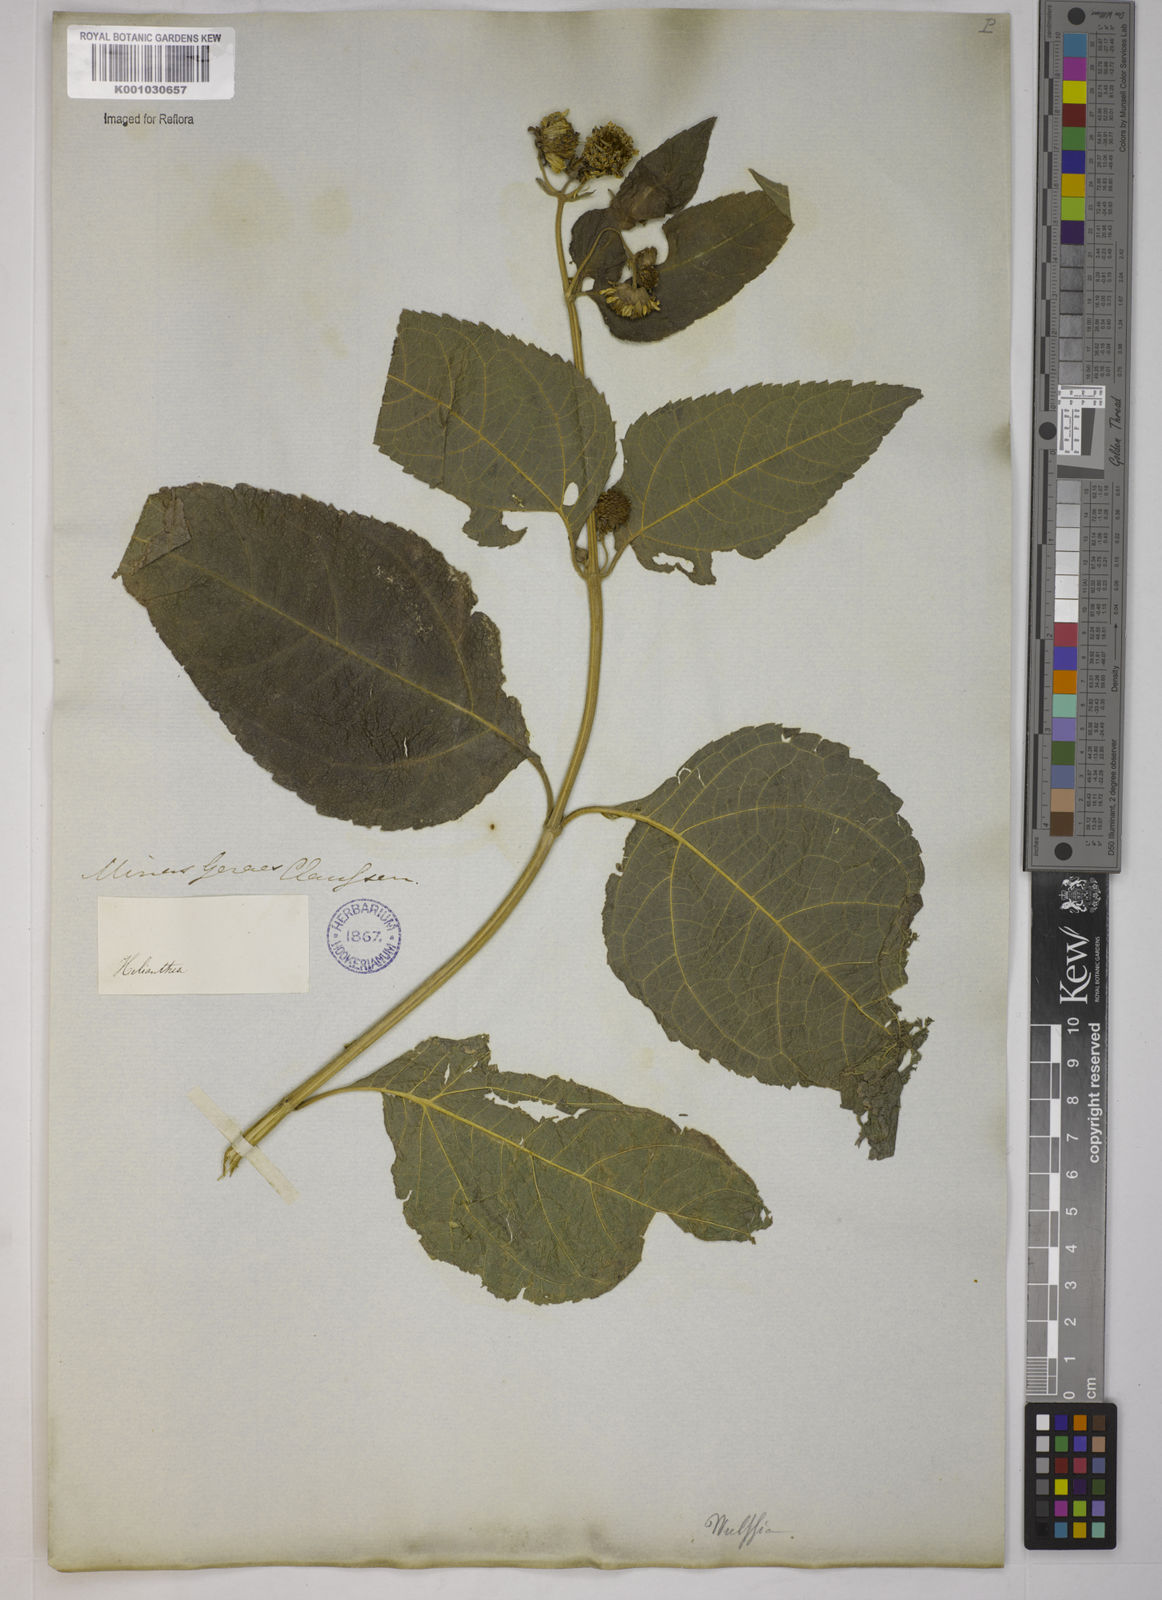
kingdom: Plantae
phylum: Tracheophyta
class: Magnoliopsida
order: Asterales
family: Asteraceae
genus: Tilesia
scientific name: Tilesia baccata
